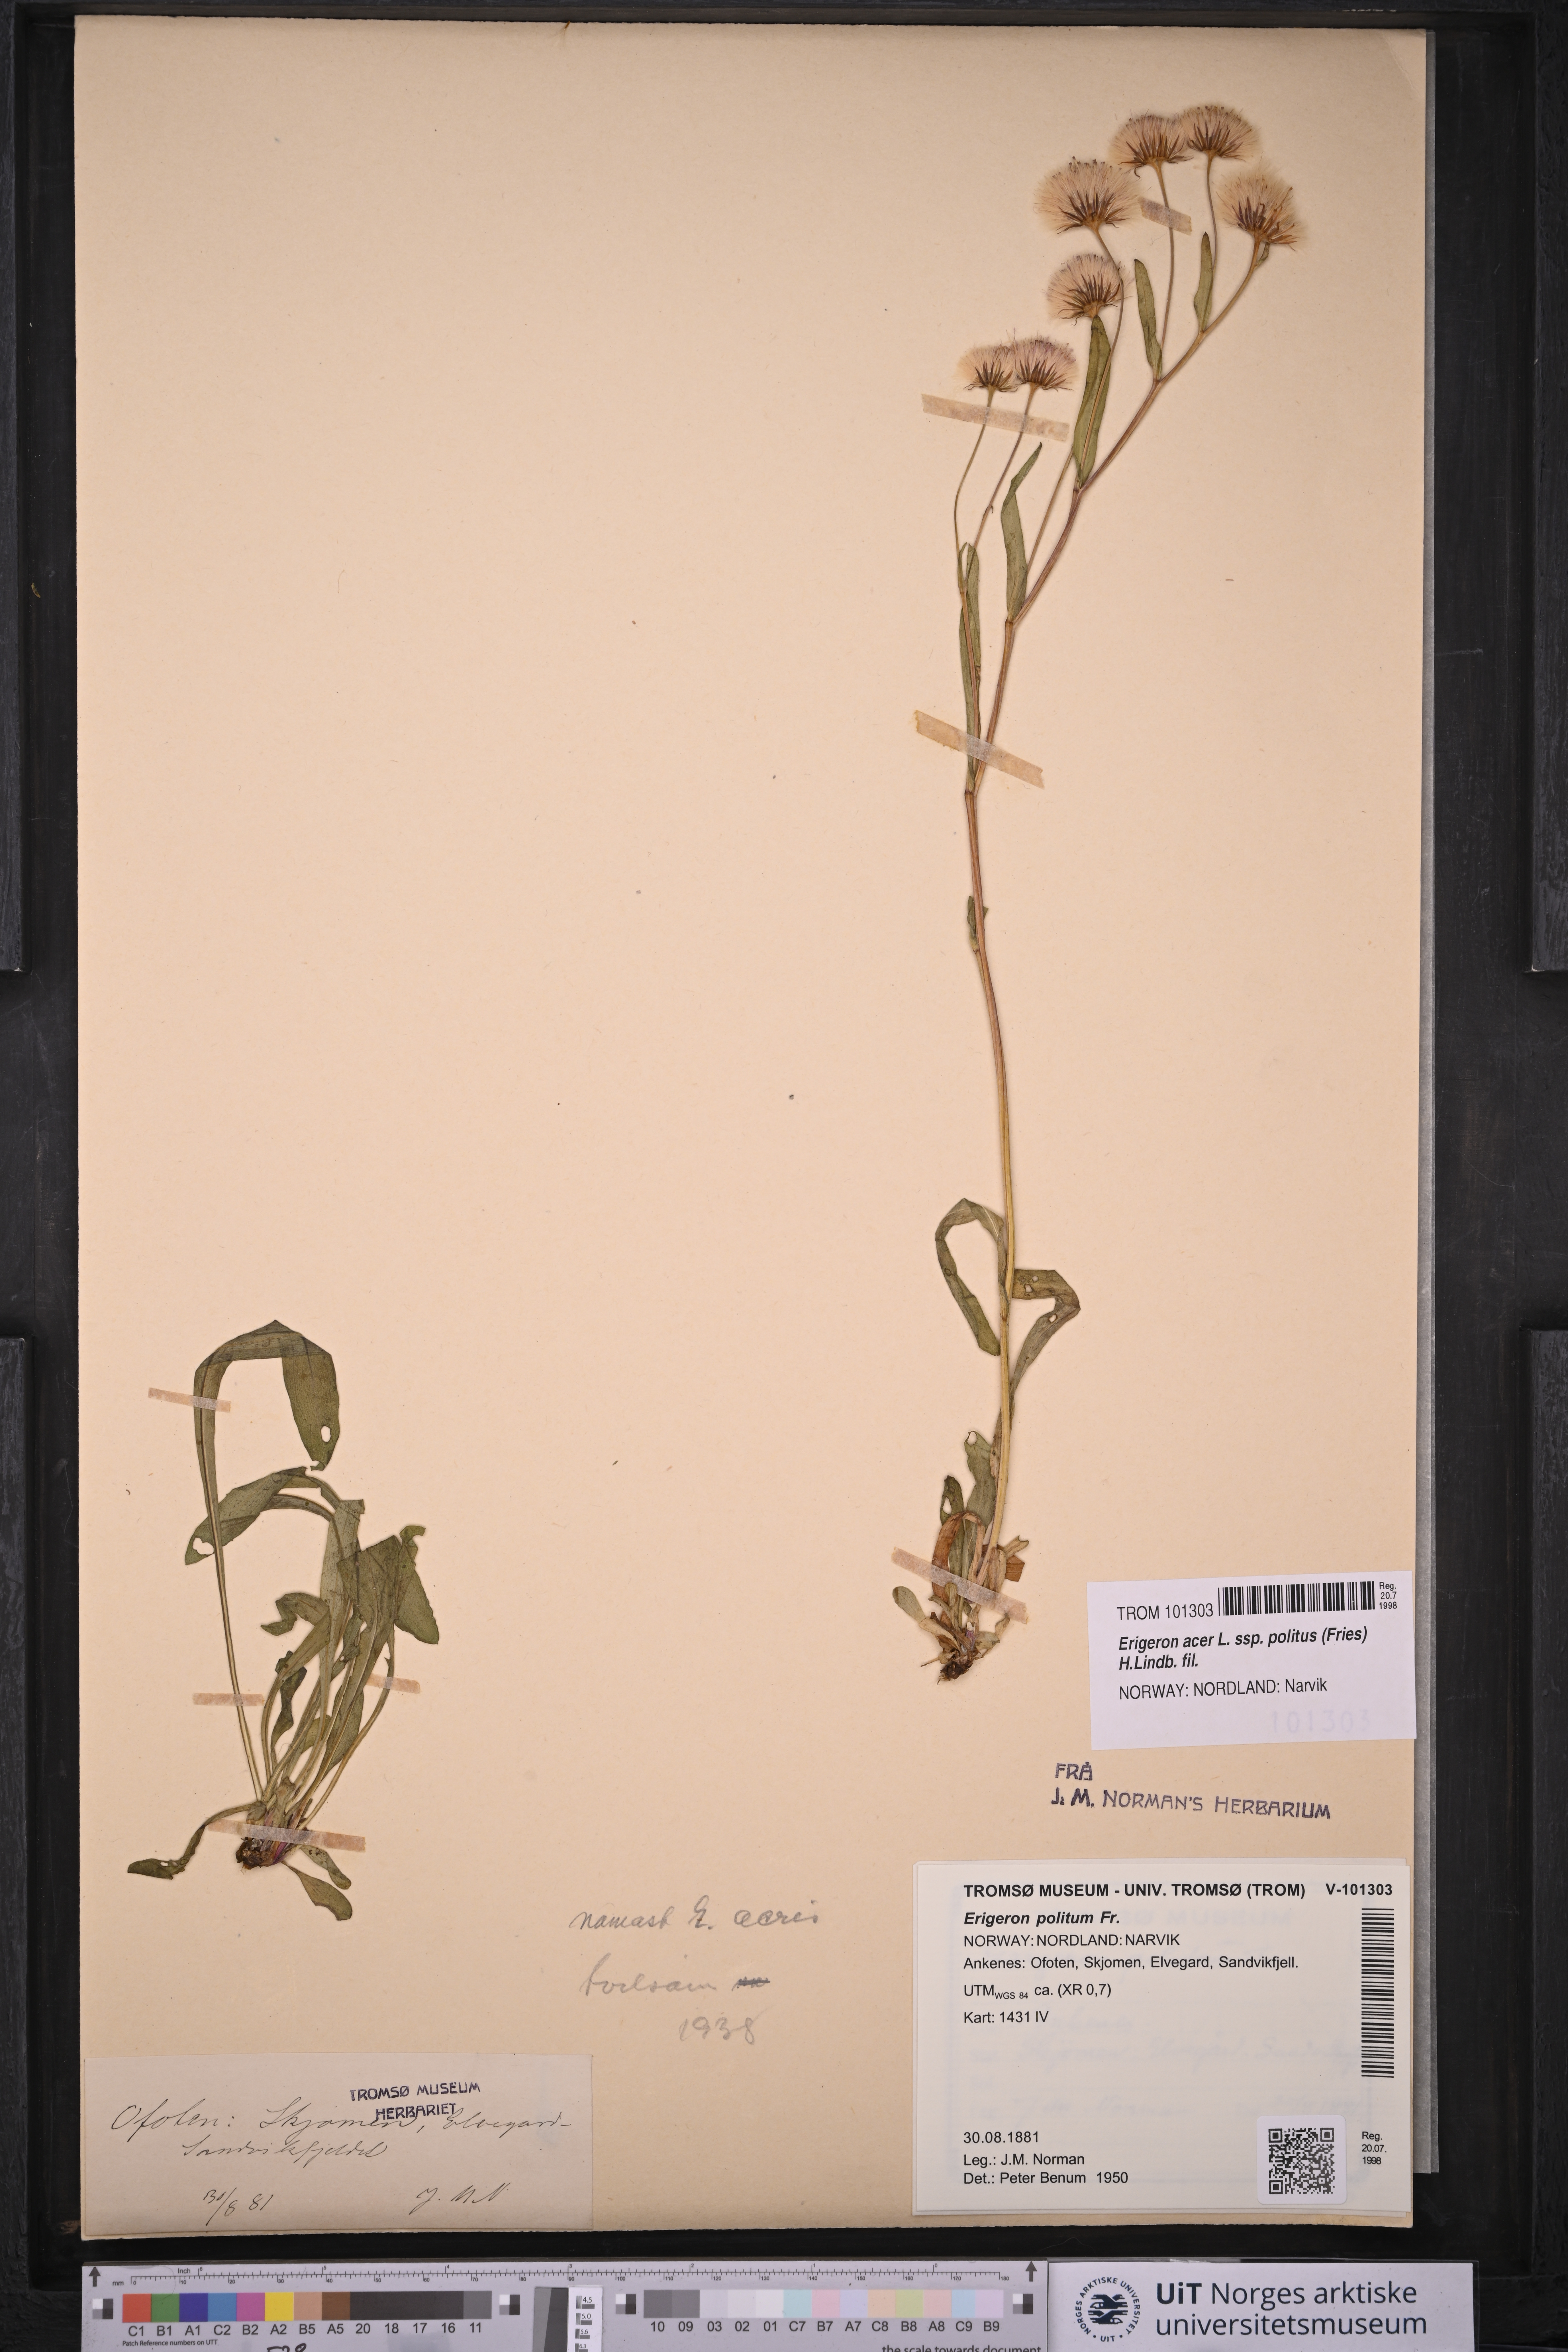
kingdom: Plantae
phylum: Tracheophyta
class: Magnoliopsida
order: Asterales
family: Asteraceae
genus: Erigeron
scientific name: Erigeron politus
